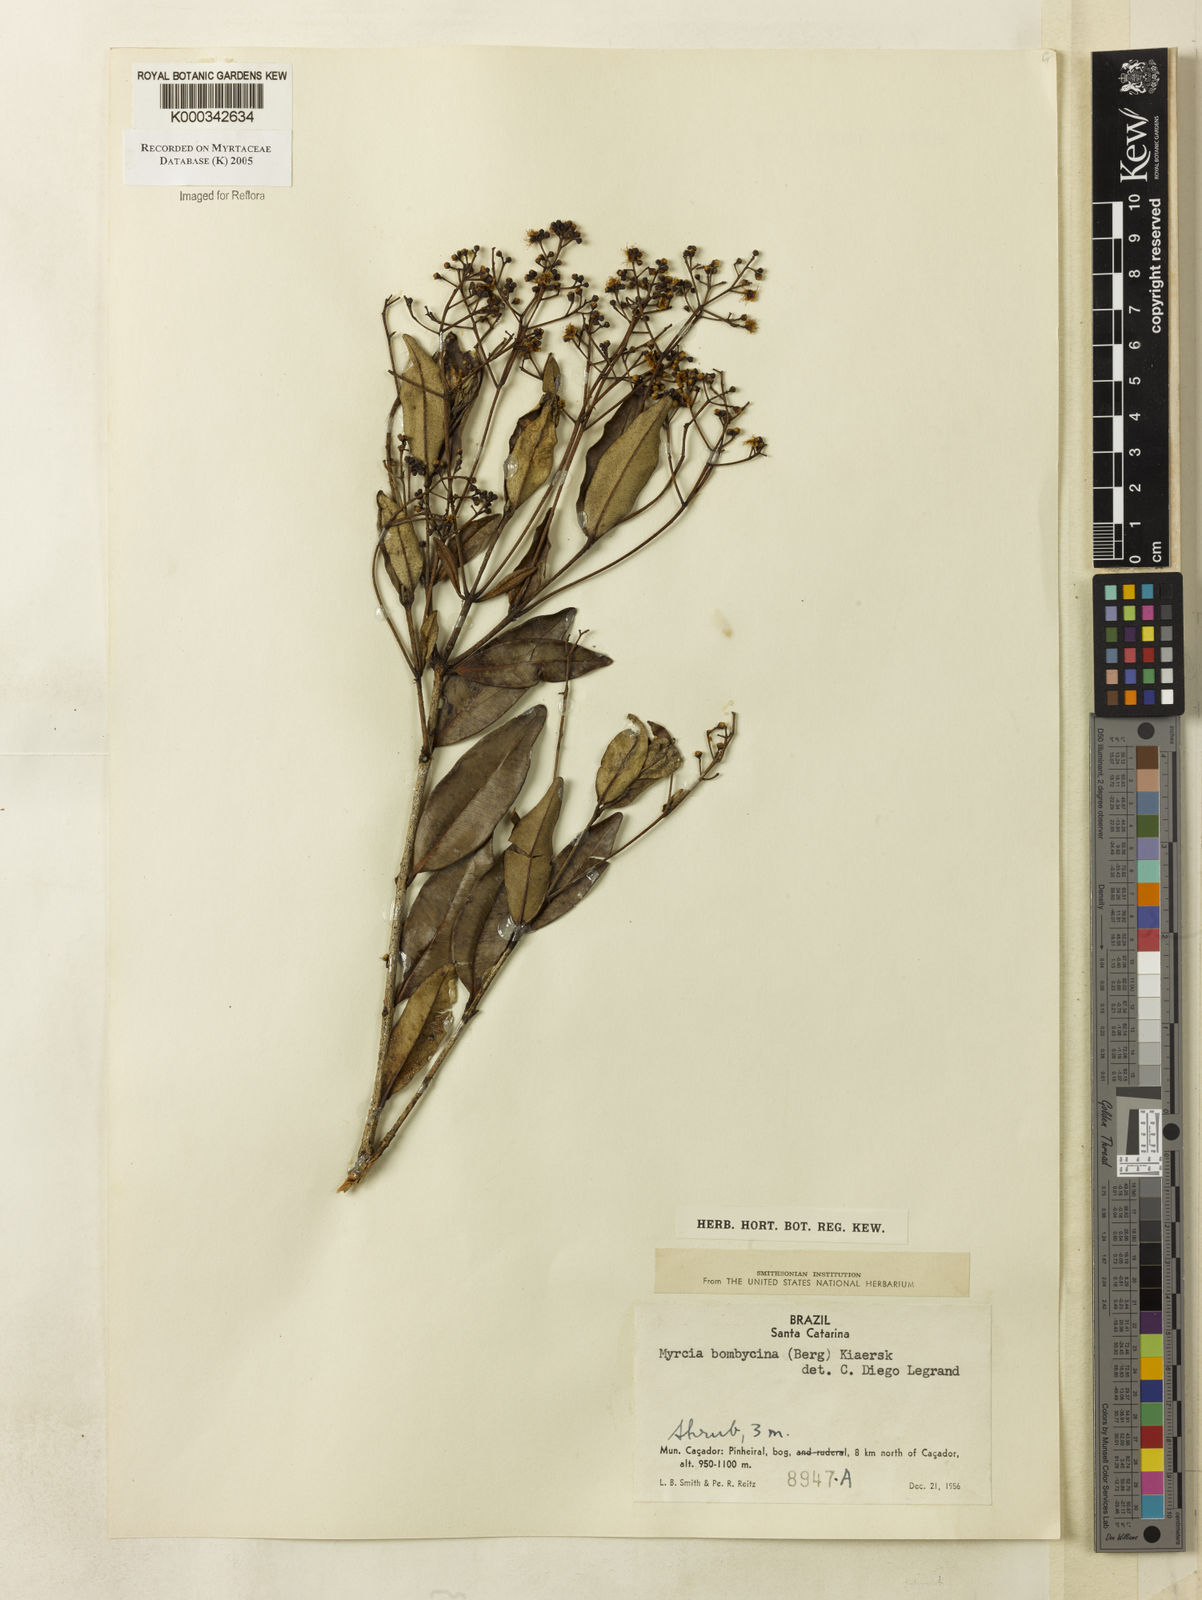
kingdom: Plantae
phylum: Tracheophyta
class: Magnoliopsida
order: Myrtales
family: Myrtaceae
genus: Myrcia
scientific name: Myrcia
